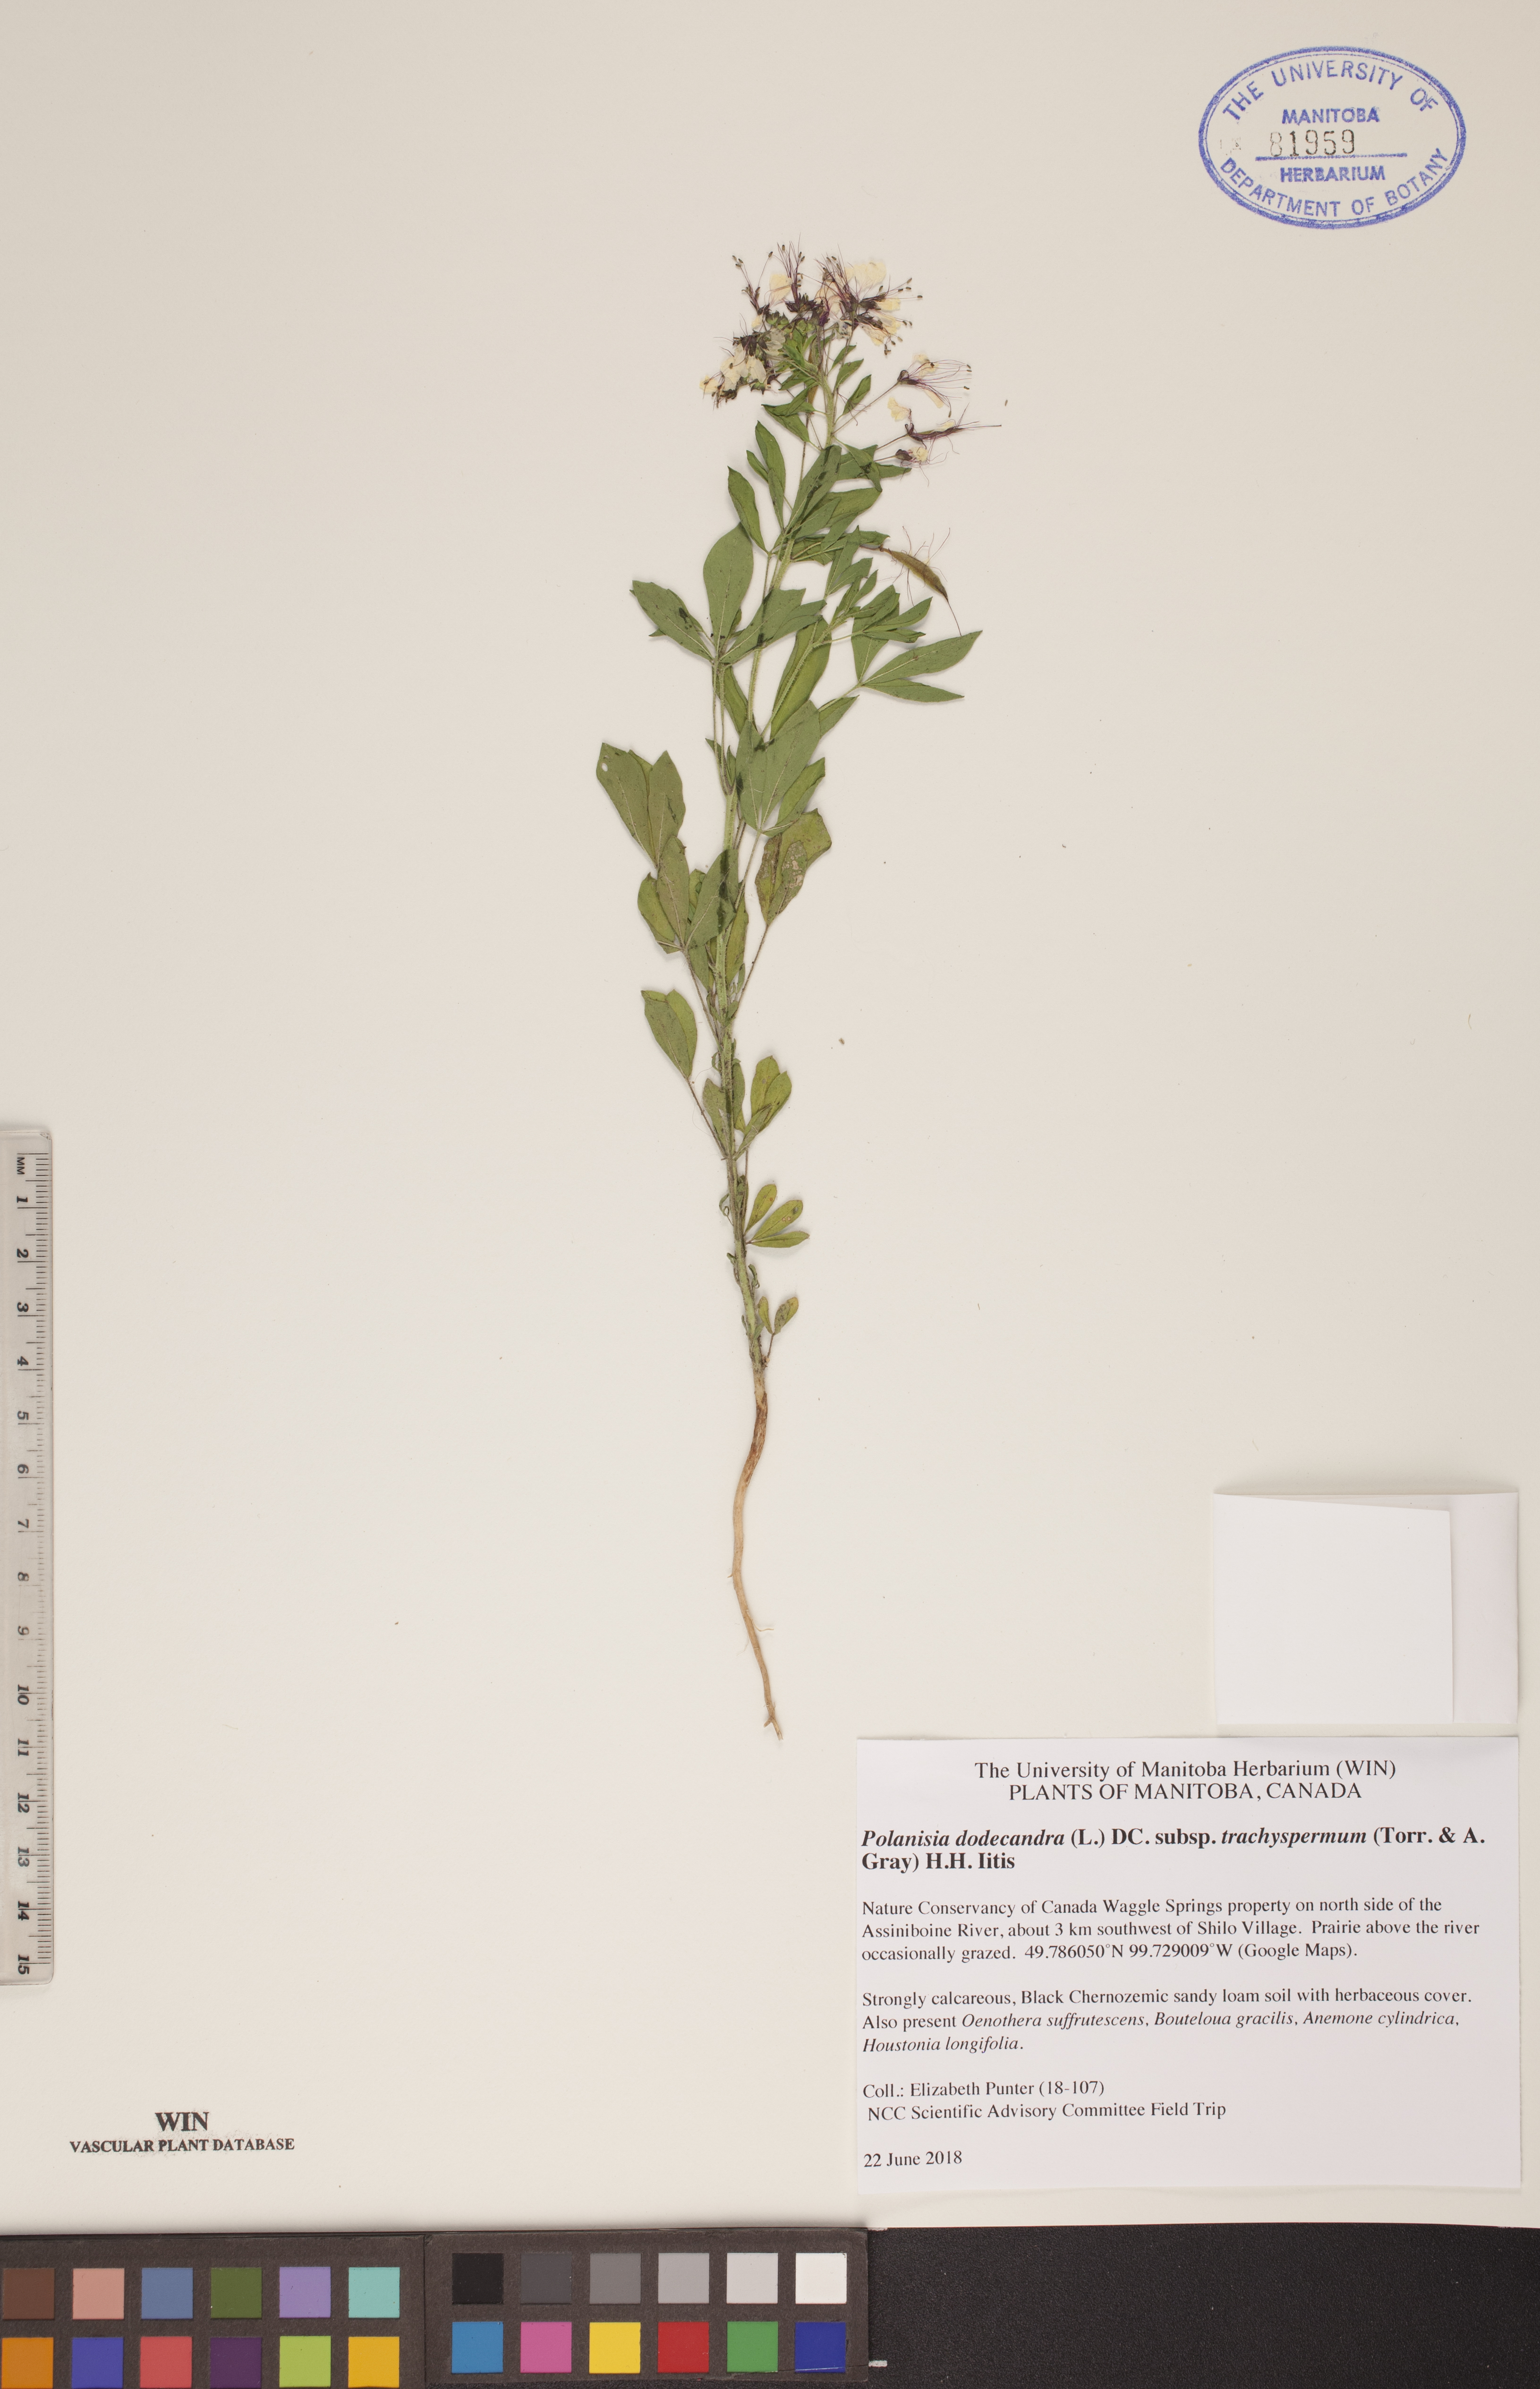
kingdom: Plantae
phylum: Tracheophyta
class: Magnoliopsida
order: Brassicales
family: Cleomaceae
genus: Polanisia
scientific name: Polanisia trachysperma
